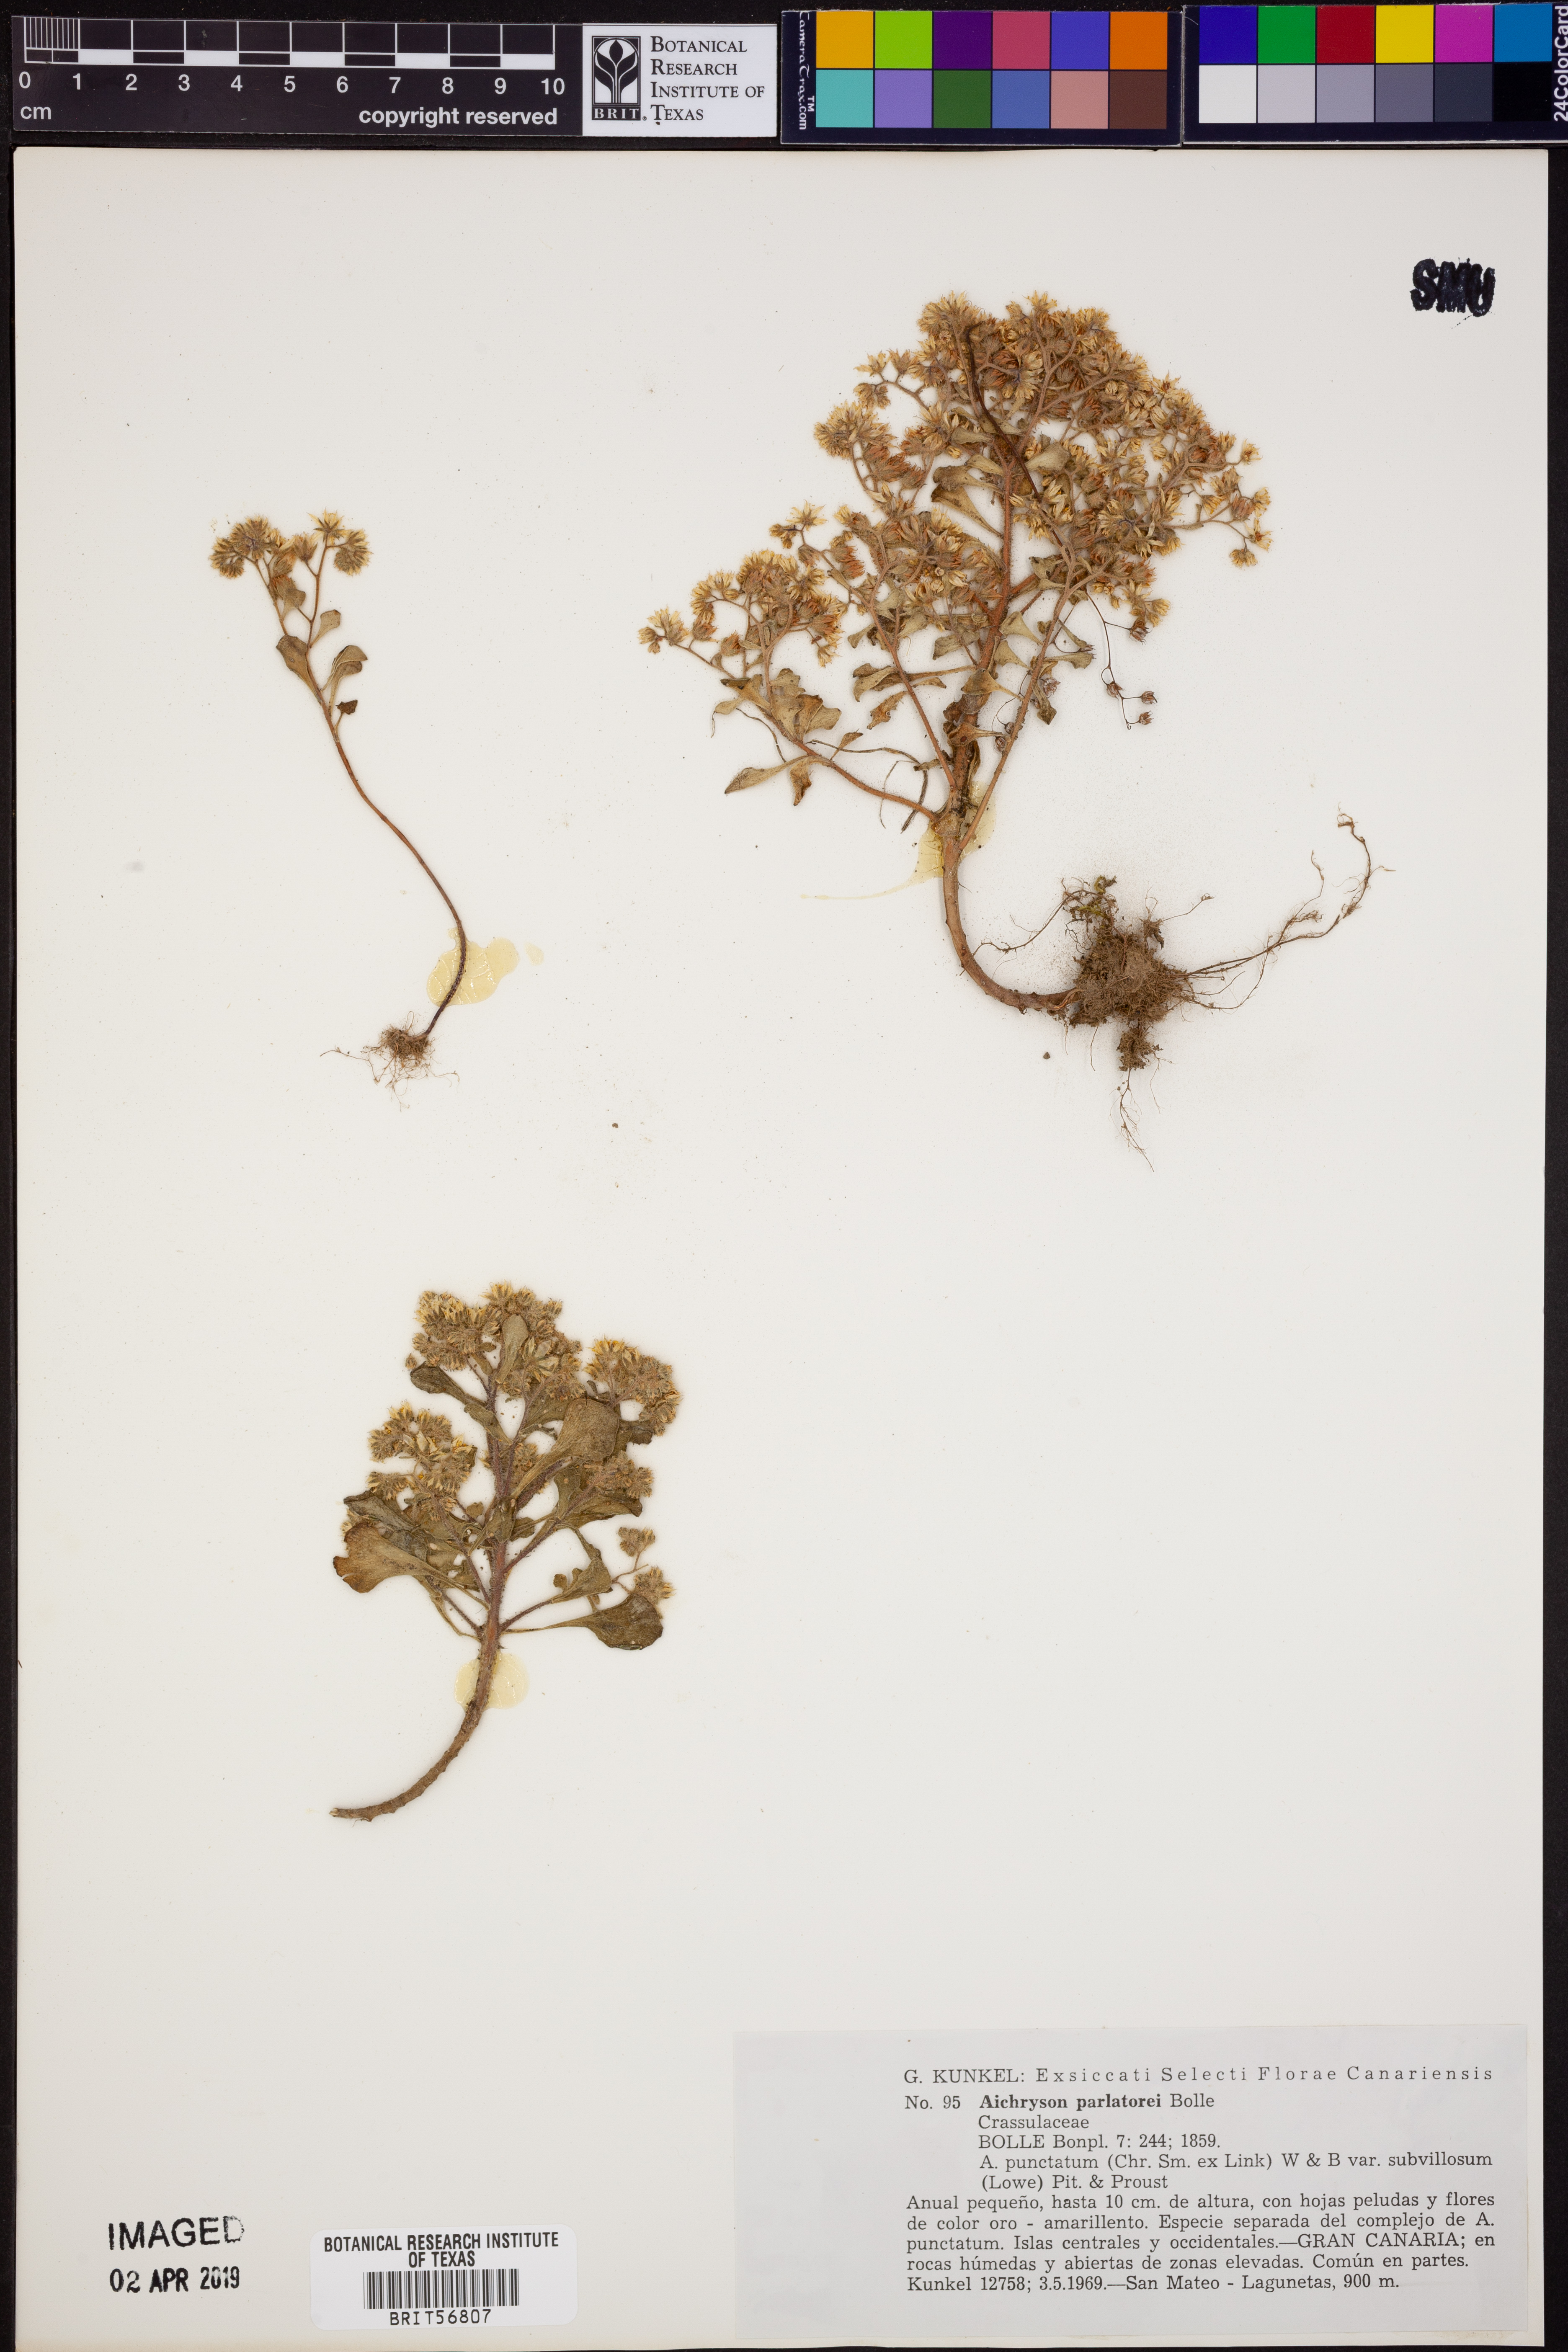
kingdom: Plantae
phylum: Tracheophyta
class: Magnoliopsida
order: Saxifragales
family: Crassulaceae
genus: Aichryson
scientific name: Aichryson parlatorei
